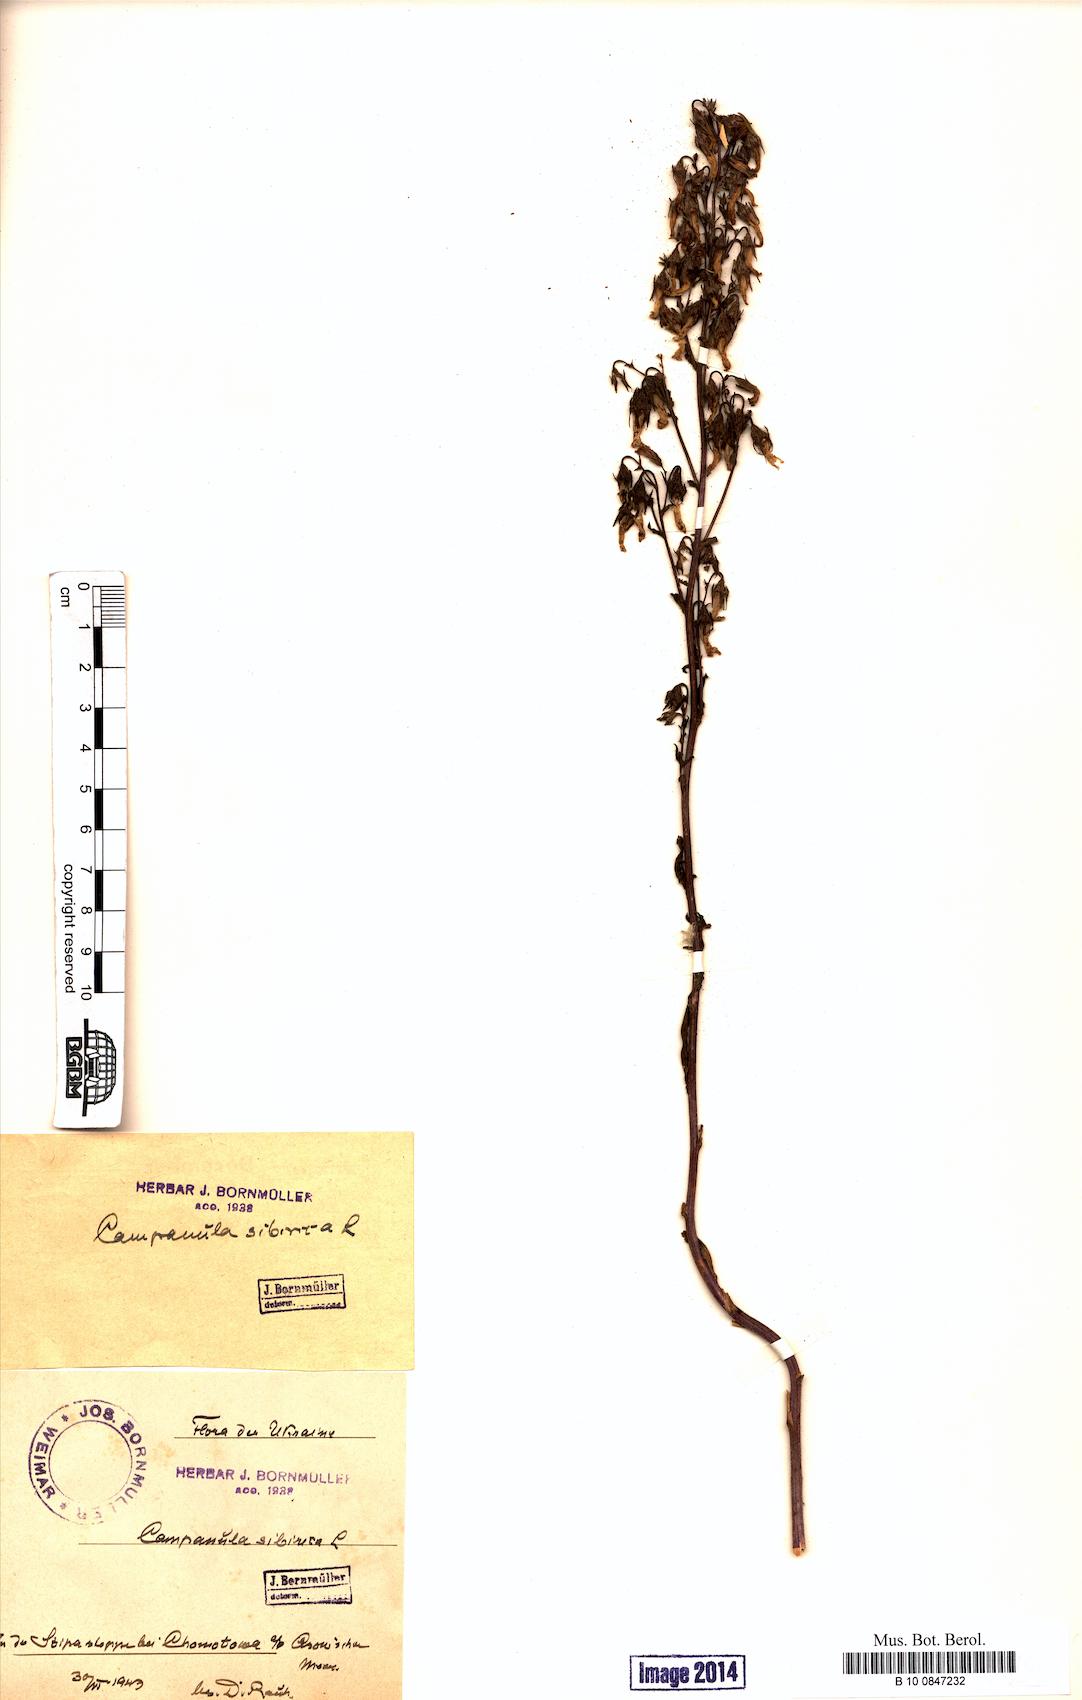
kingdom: Plantae
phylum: Tracheophyta
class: Magnoliopsida
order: Asterales
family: Campanulaceae
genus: Campanula
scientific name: Campanula sibirica
